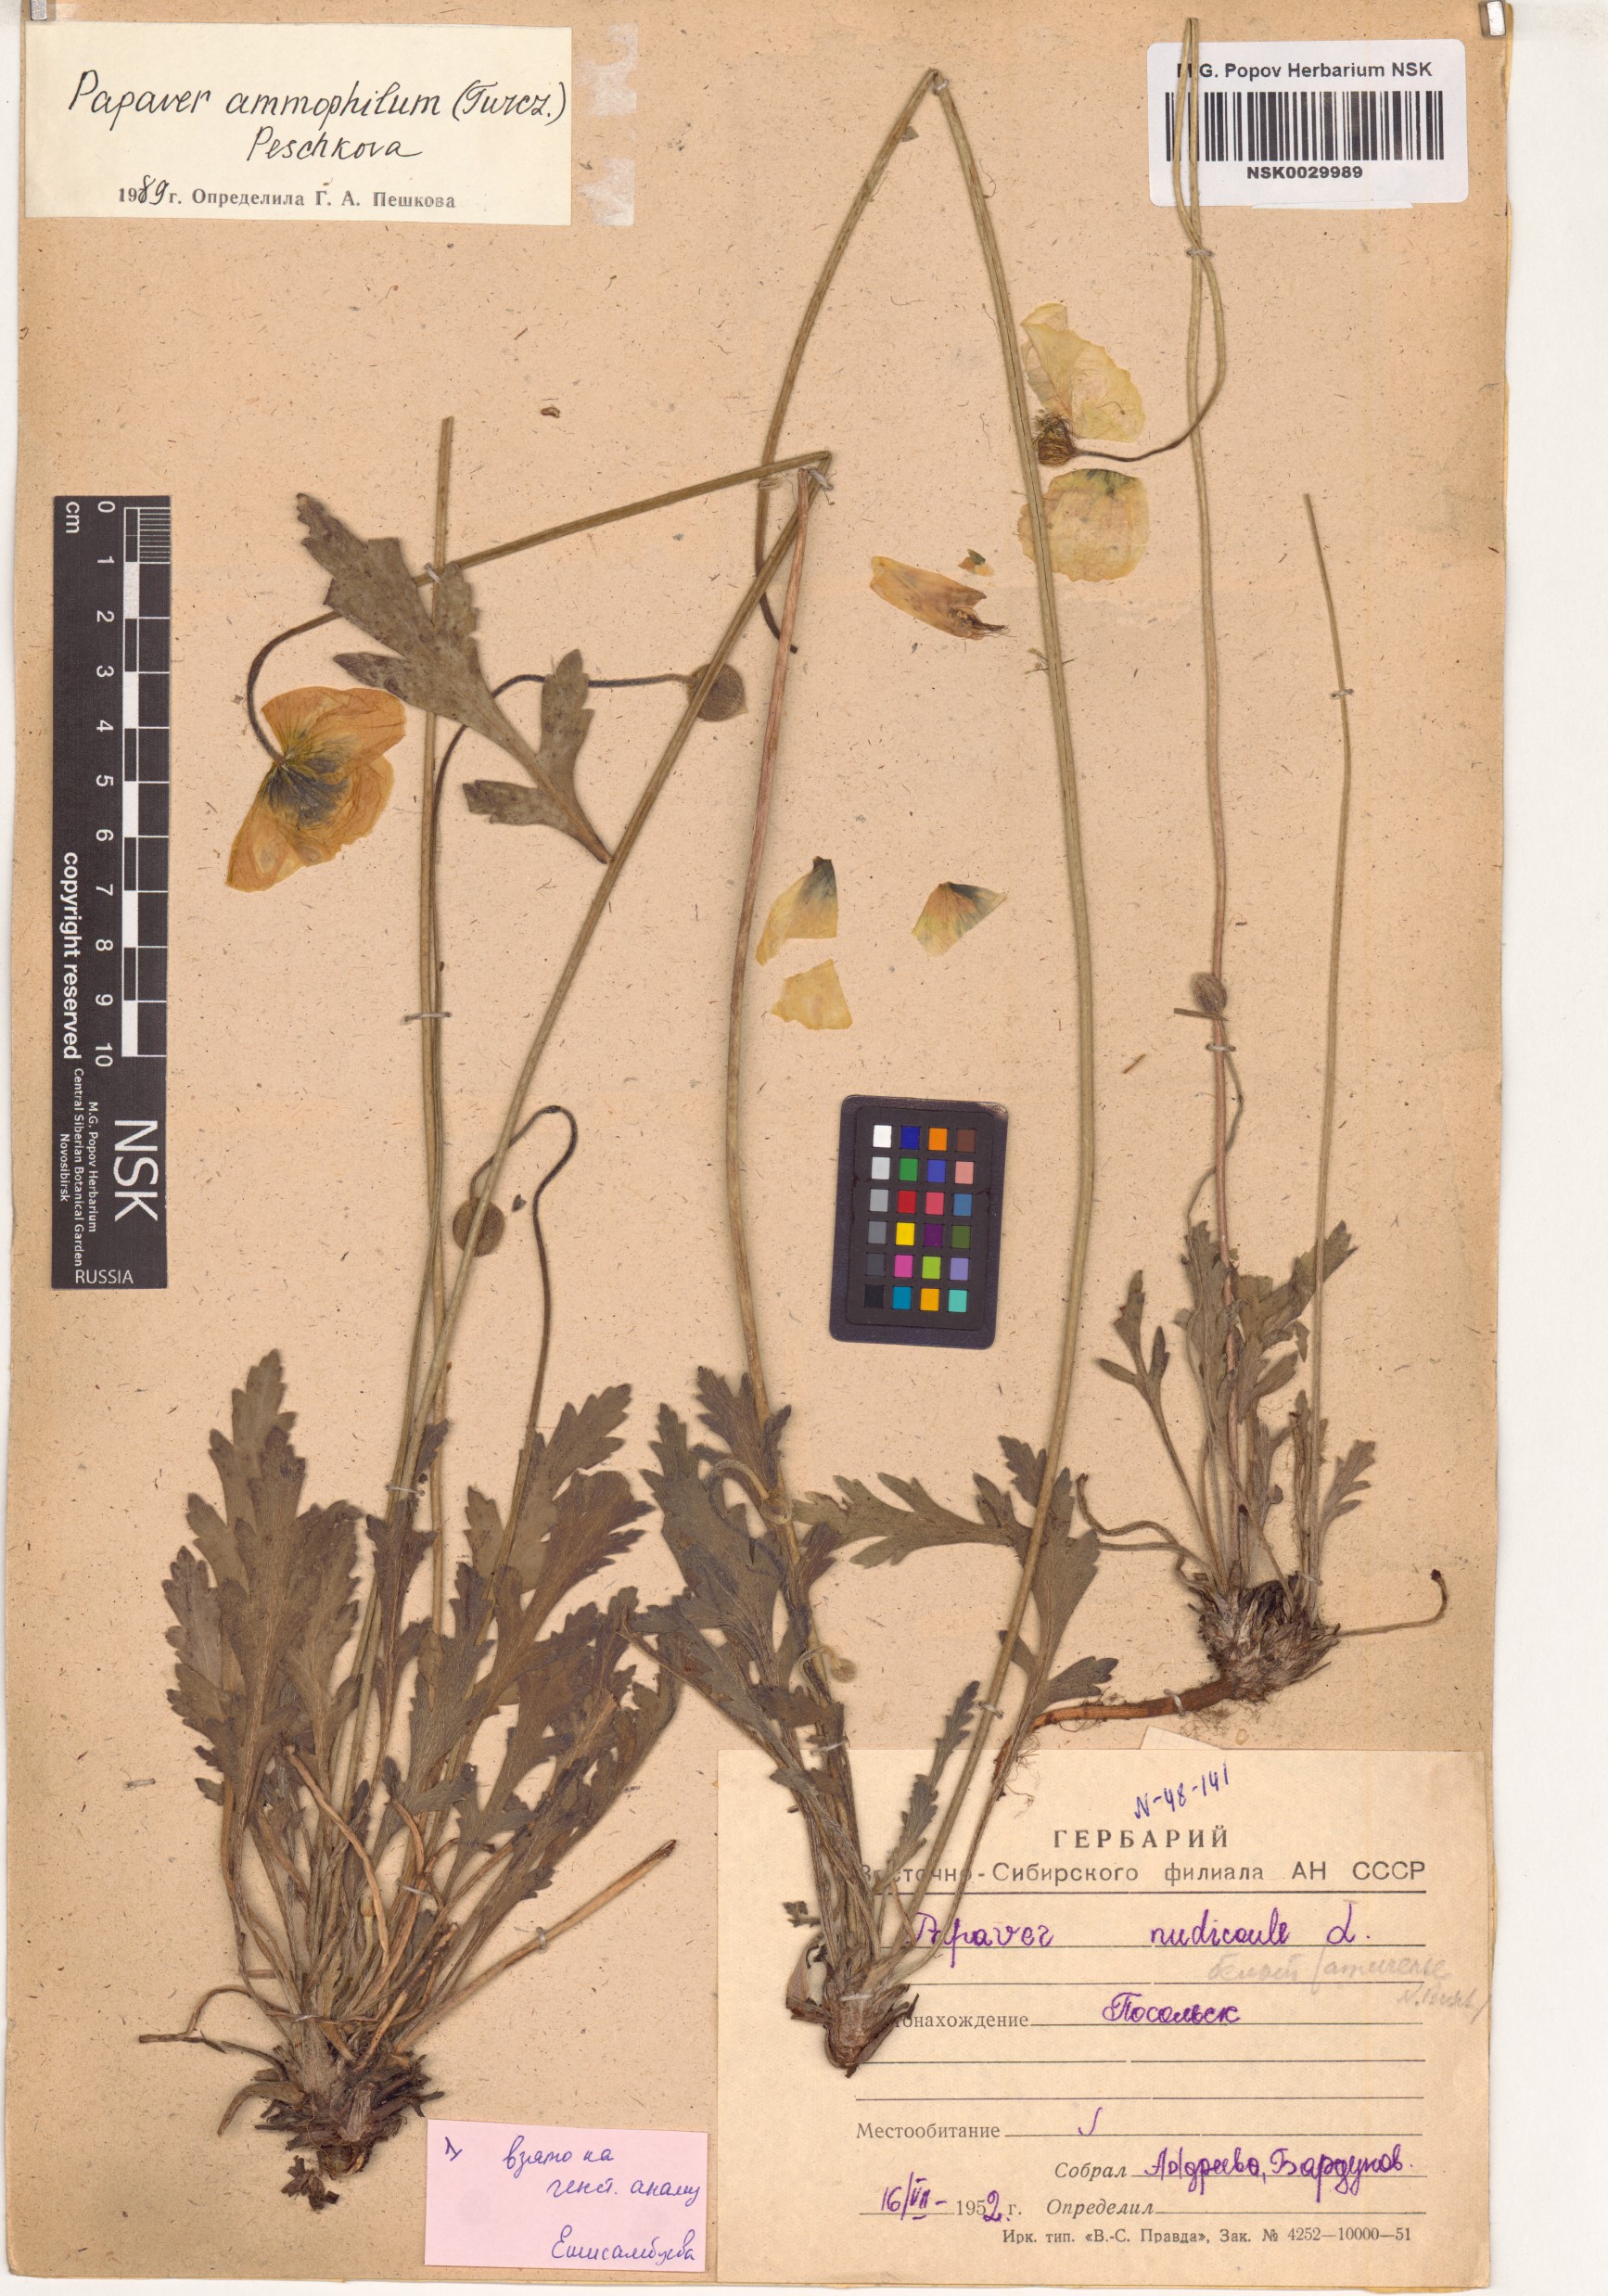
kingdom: Plantae
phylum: Tracheophyta
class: Magnoliopsida
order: Ranunculales
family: Papaveraceae
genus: Papaver
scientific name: Papaver nudicaule
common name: Arctic poppy
